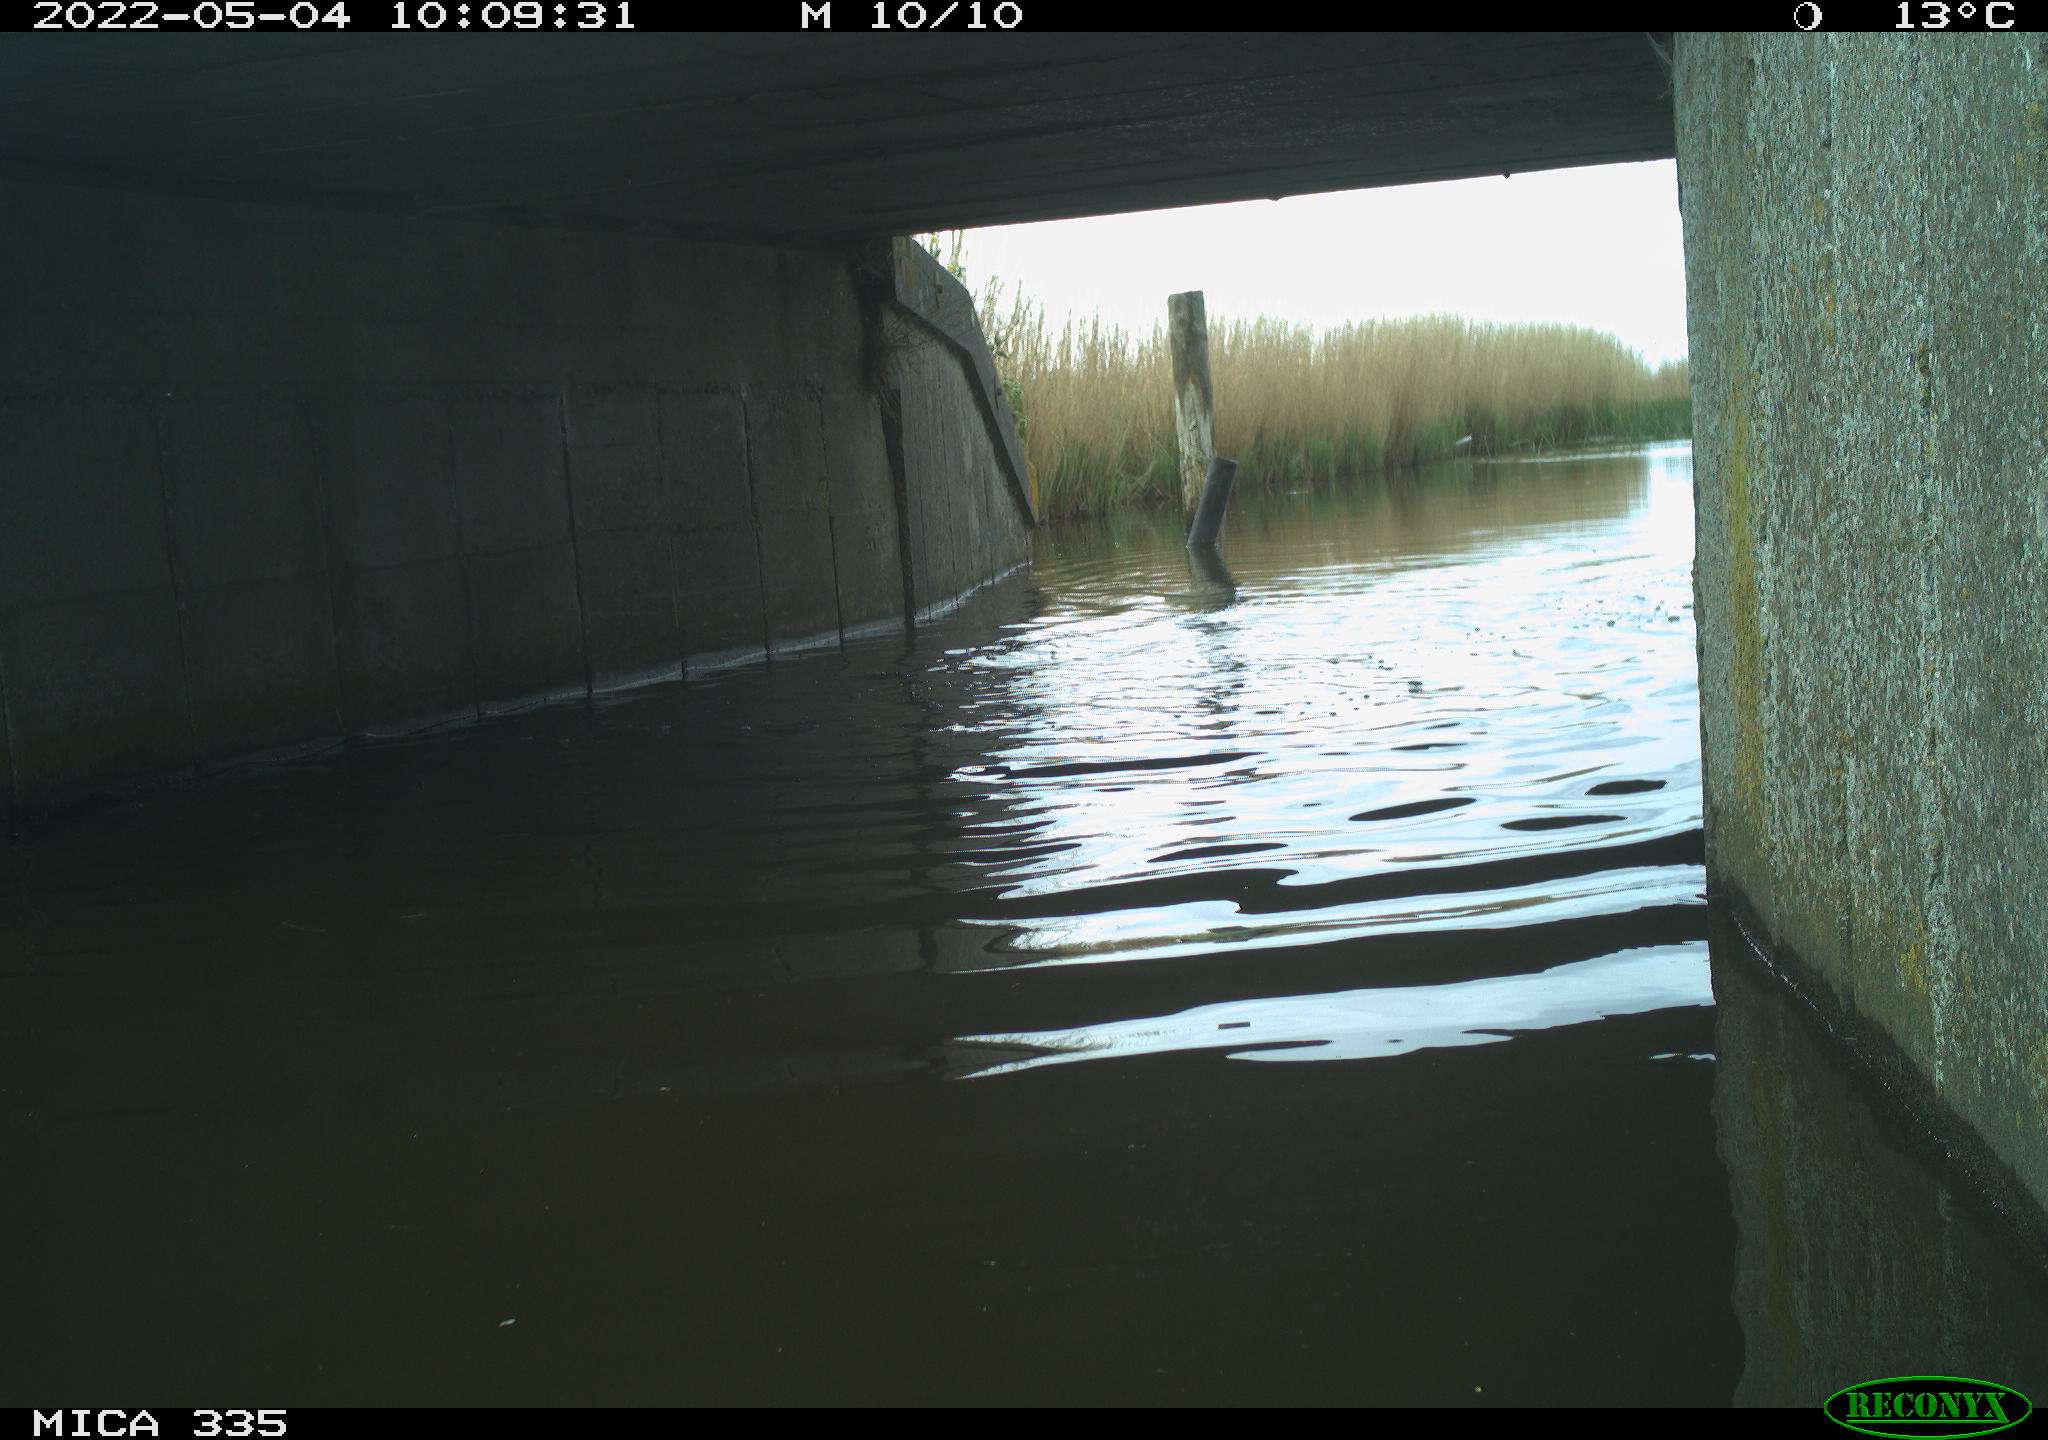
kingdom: Animalia
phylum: Chordata
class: Aves
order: Anseriformes
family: Anatidae
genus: Anas
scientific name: Anas platyrhynchos
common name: Mallard
